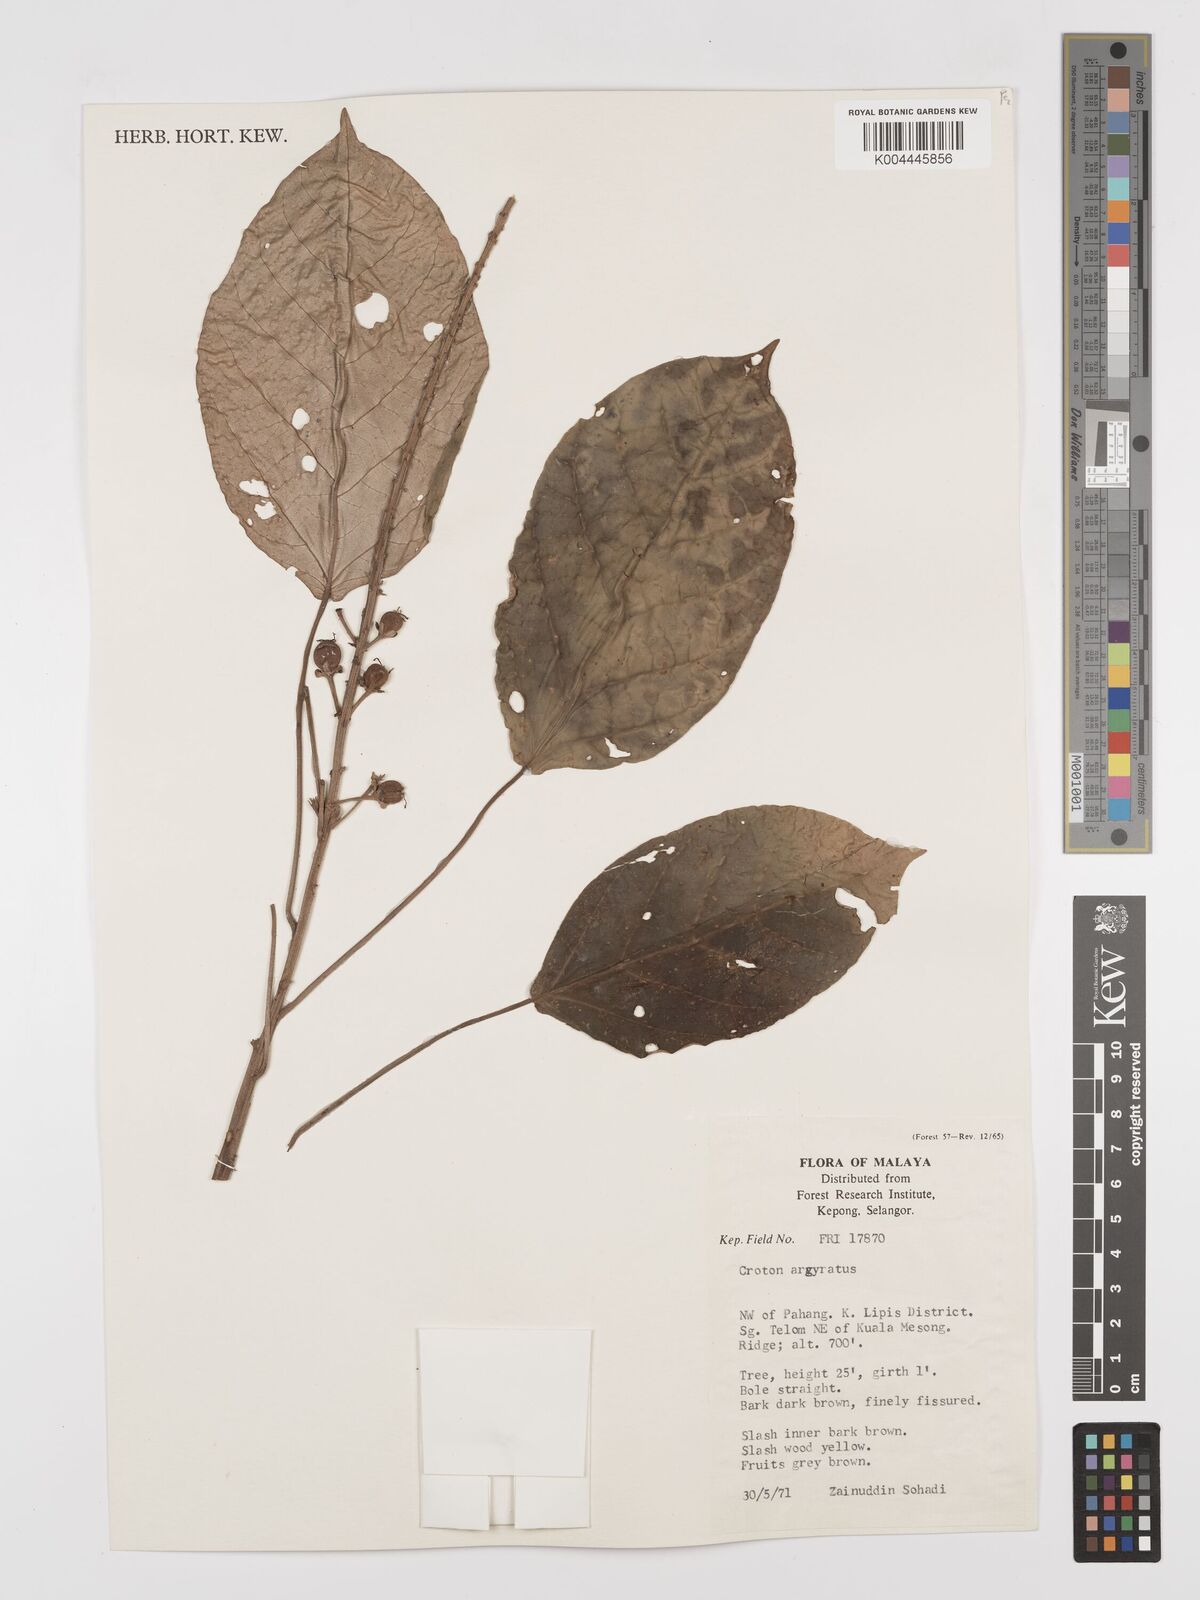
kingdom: Plantae
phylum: Tracheophyta
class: Magnoliopsida
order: Malpighiales
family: Euphorbiaceae
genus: Croton
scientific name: Croton argyratus
